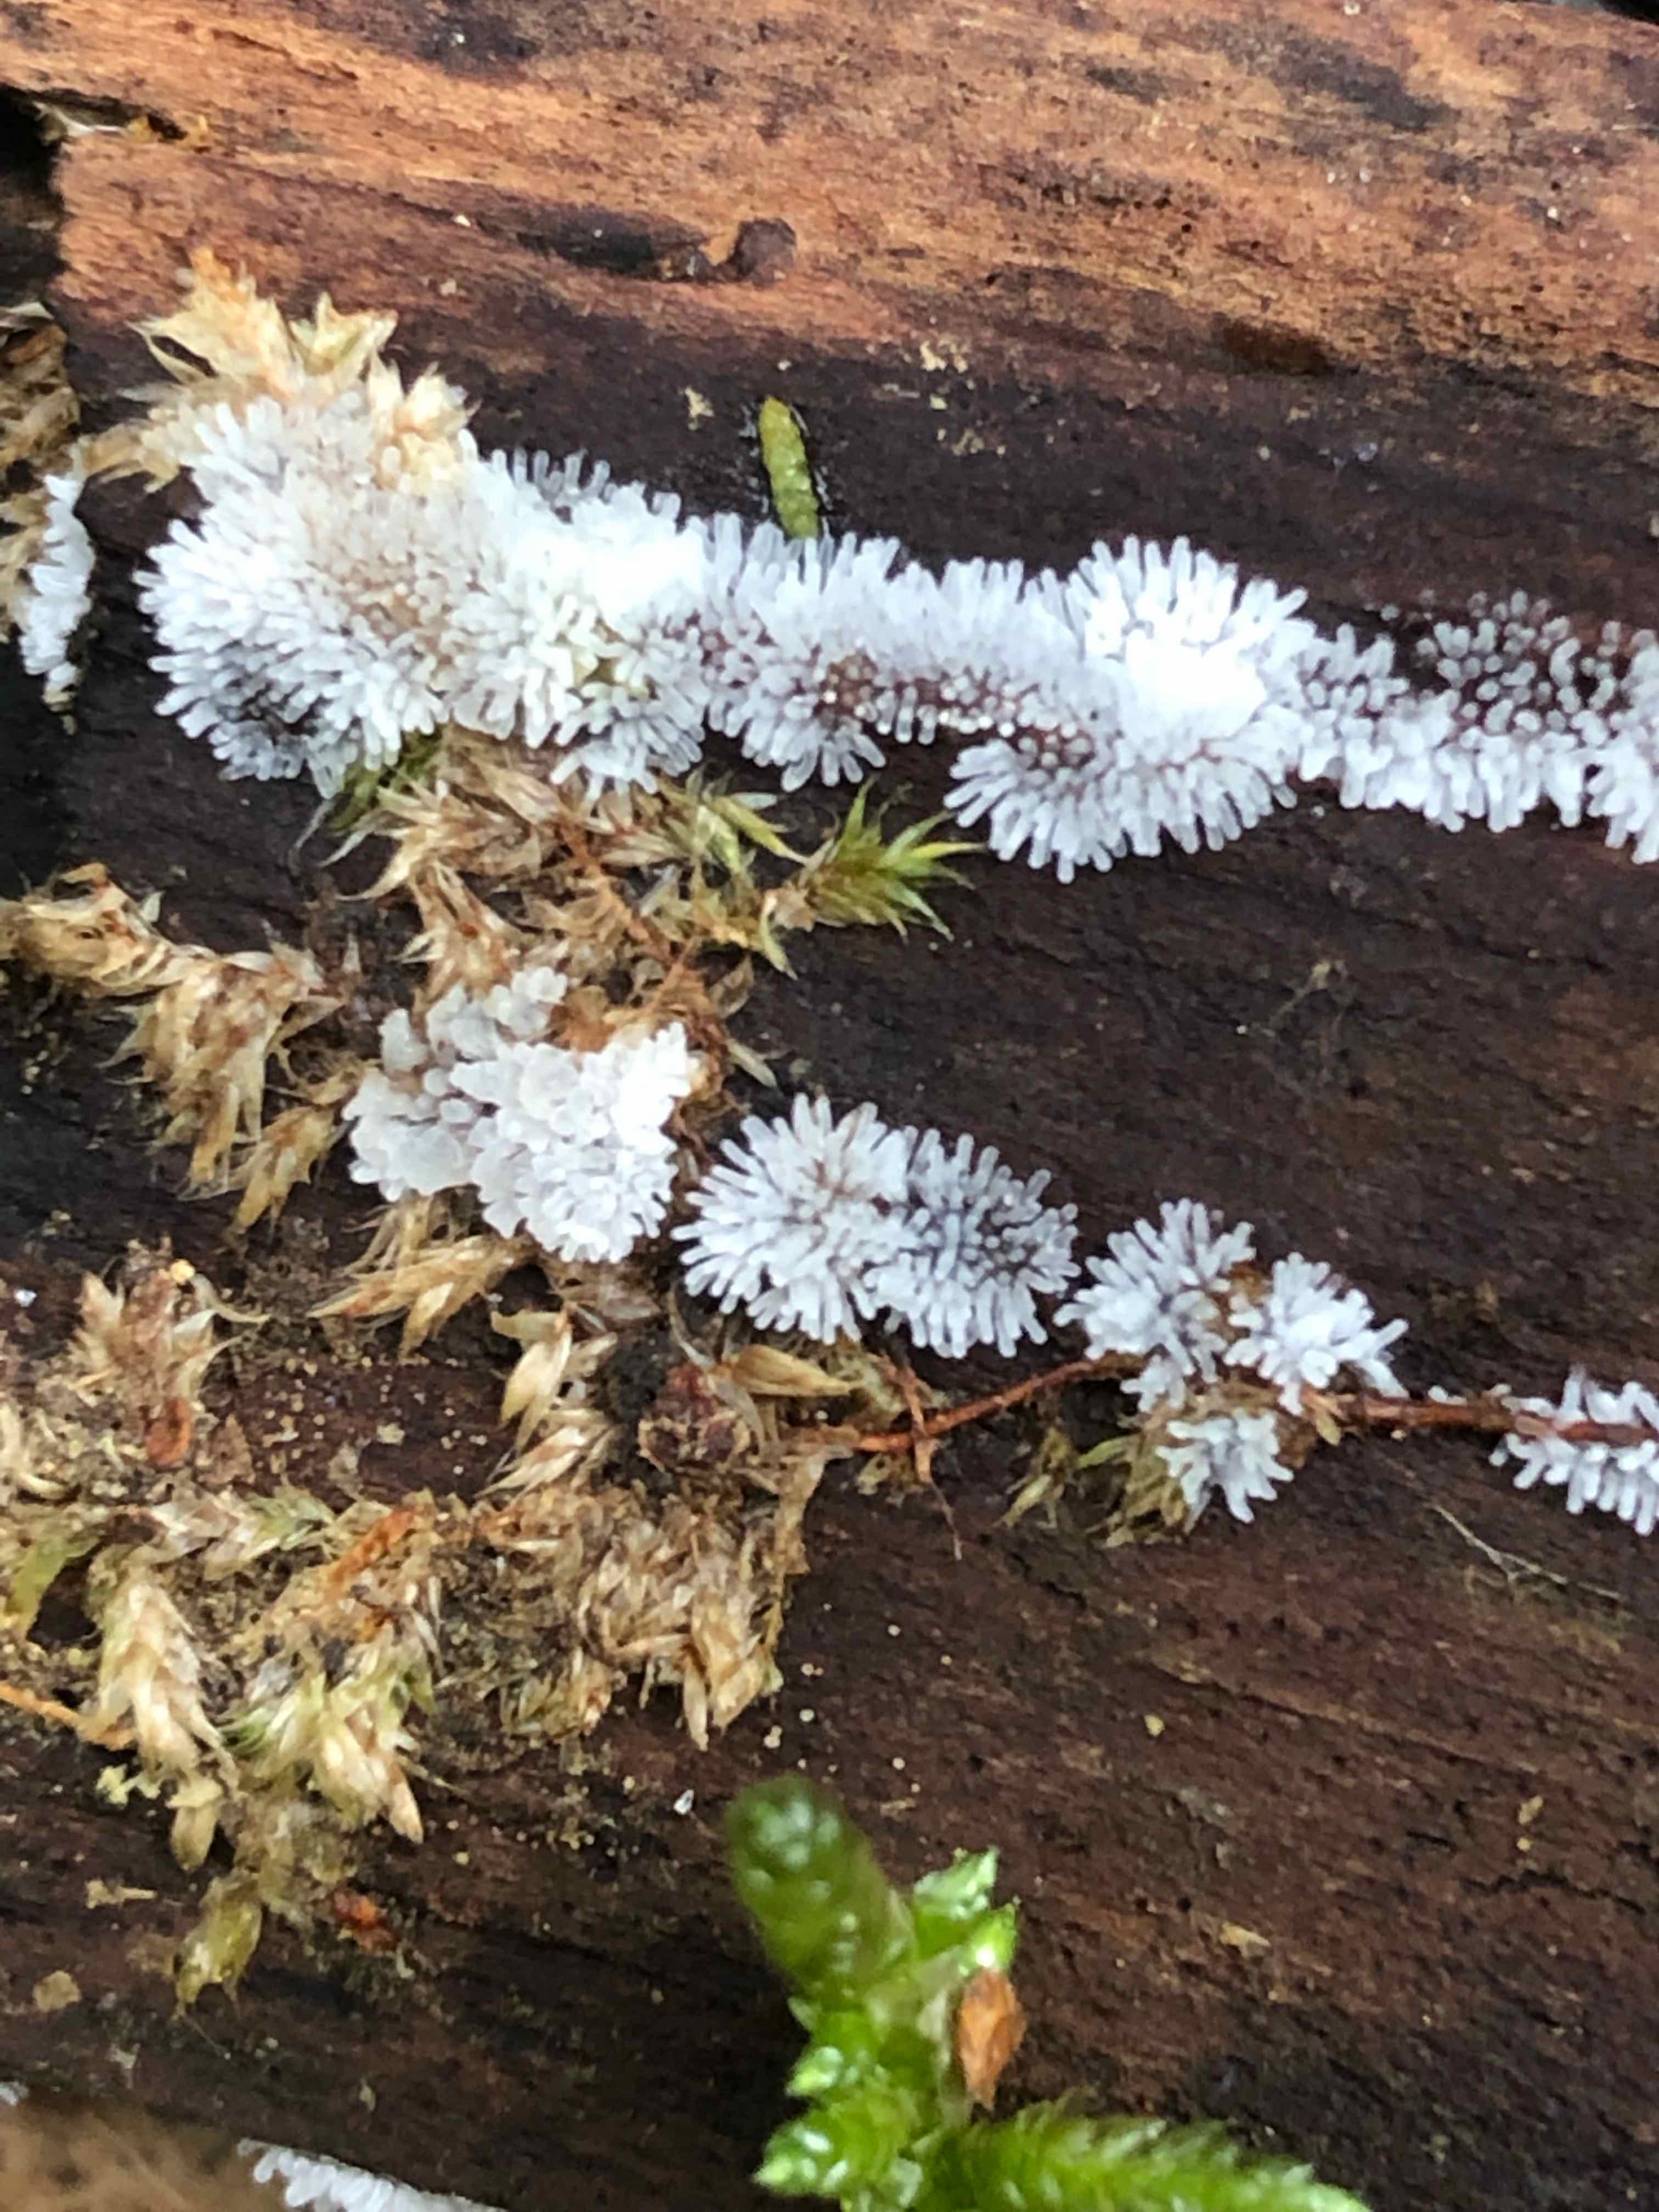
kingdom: Protozoa
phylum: Mycetozoa
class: Protosteliomycetes
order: Ceratiomyxales
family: Ceratiomyxaceae
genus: Ceratiomyxa
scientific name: Ceratiomyxa fruticulosa
